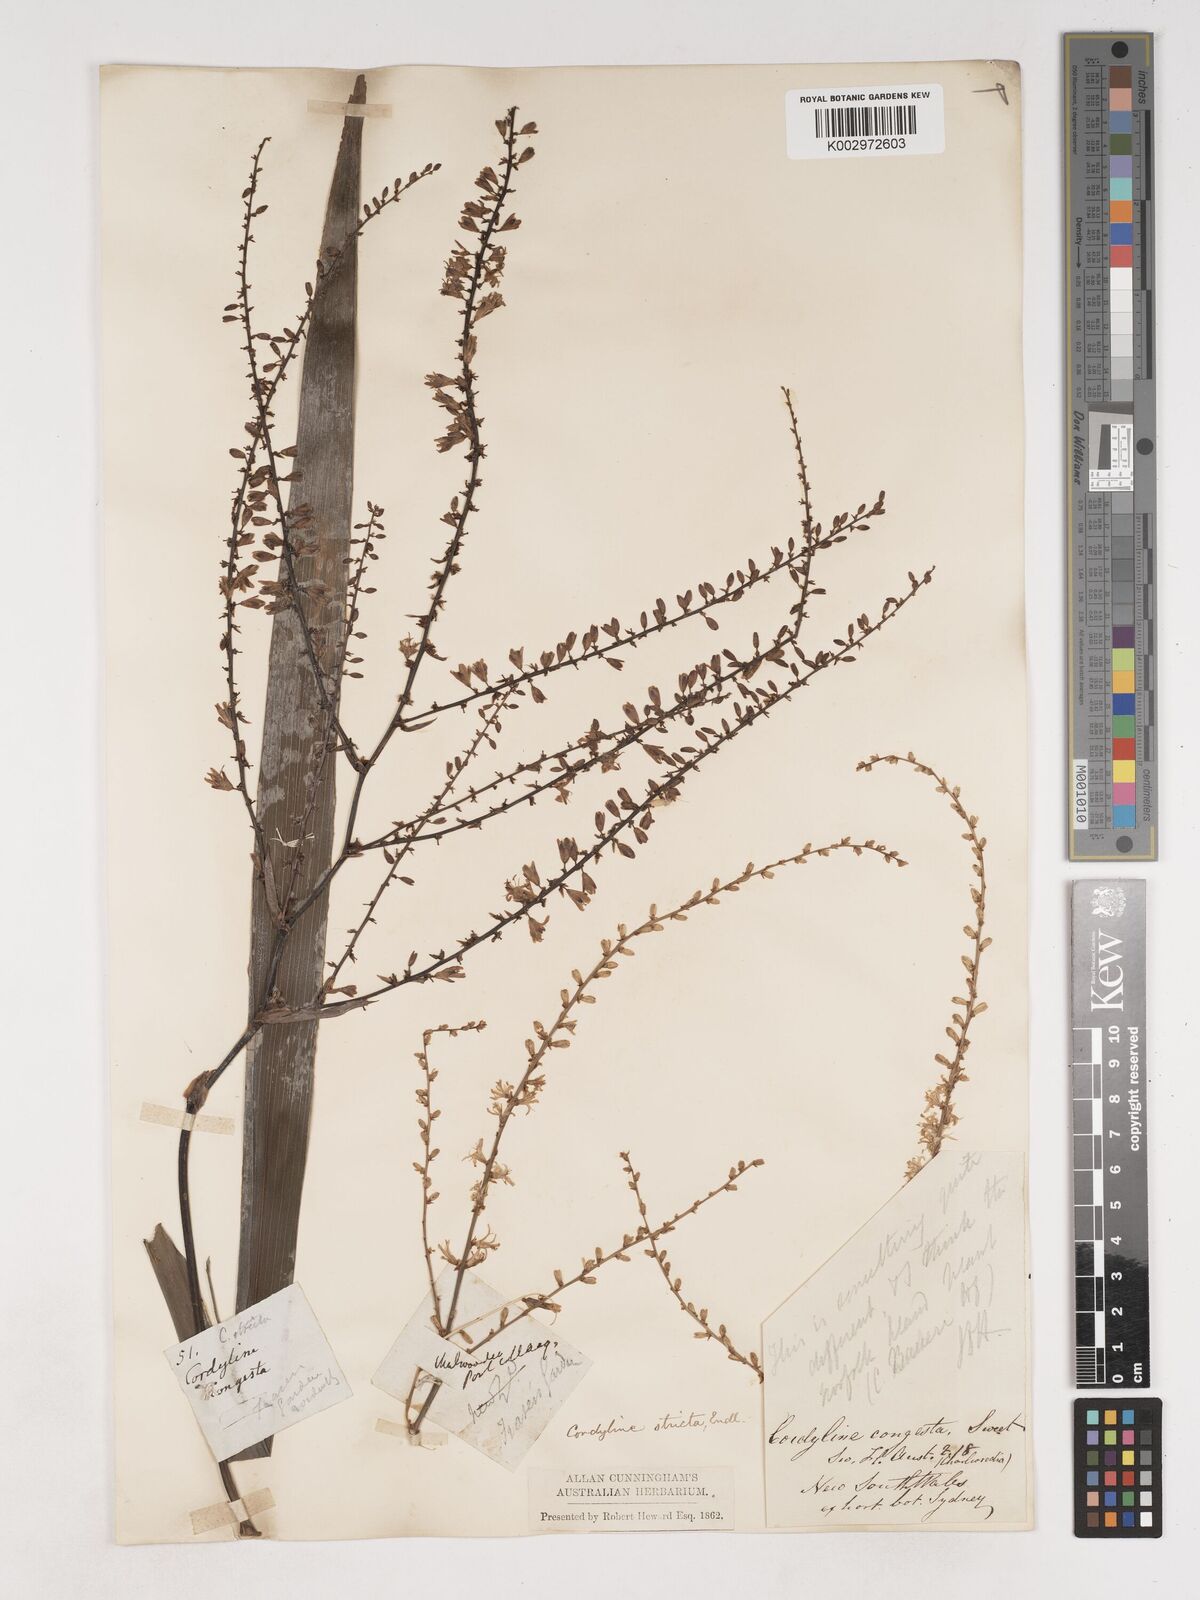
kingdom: Plantae
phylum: Tracheophyta
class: Liliopsida
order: Asparagales
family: Asparagaceae
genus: Cordyline
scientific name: Cordyline stricta
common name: Narrow-leaf palm-lily
